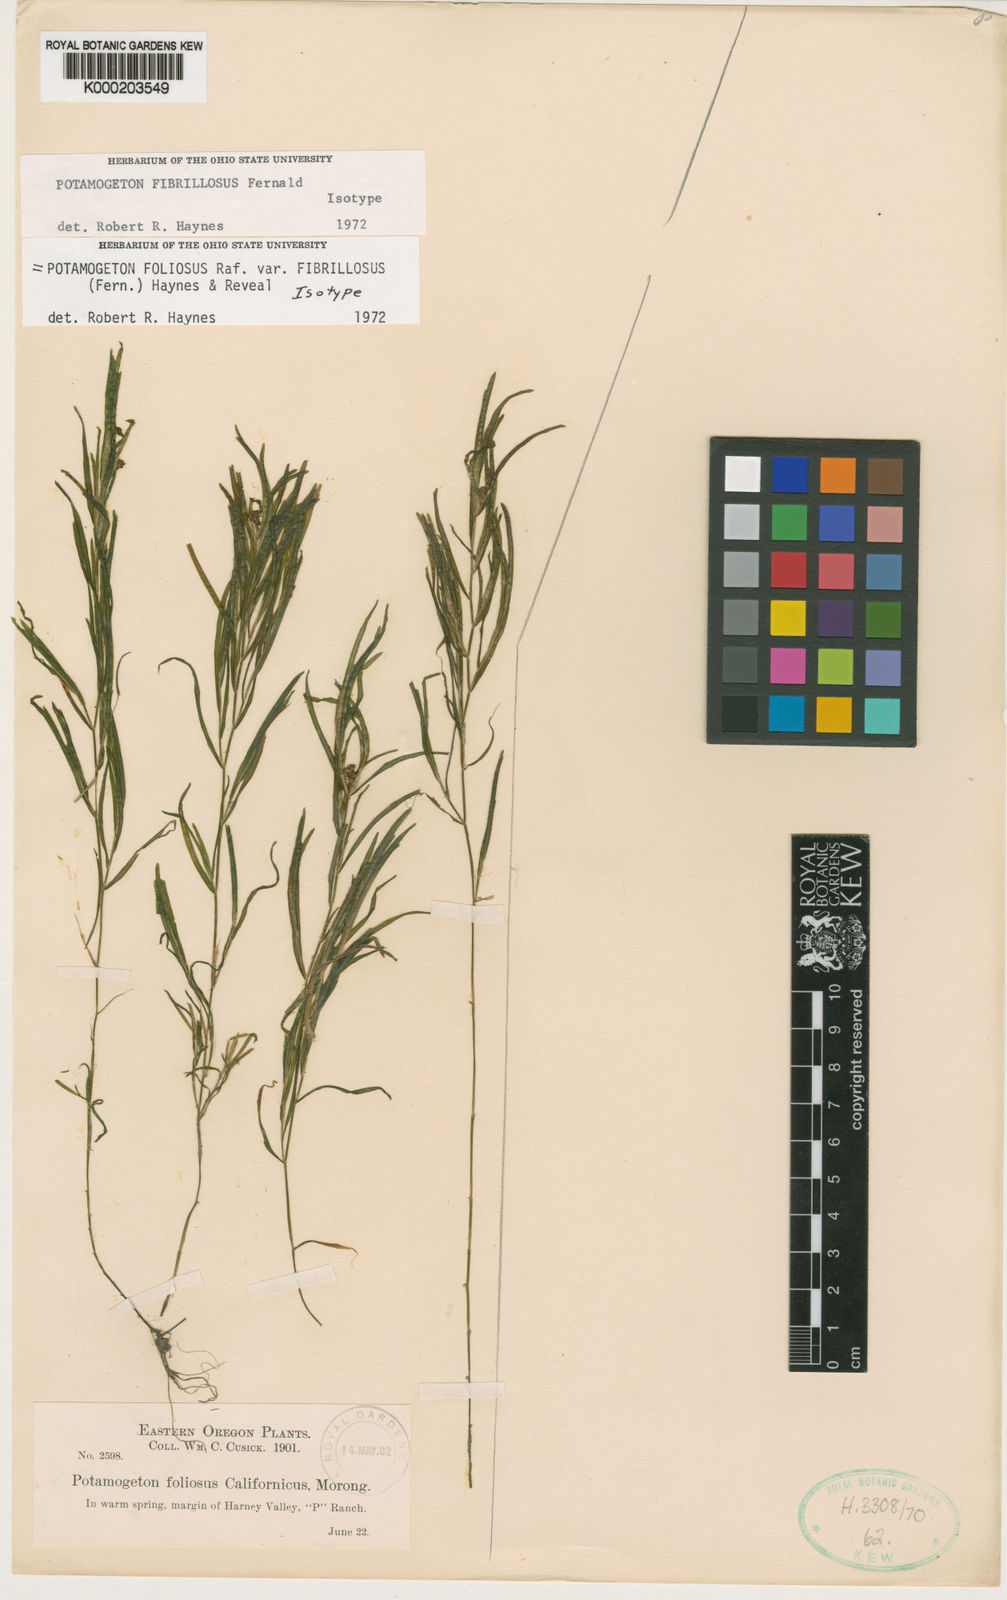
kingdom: Plantae
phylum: Tracheophyta
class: Liliopsida
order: Alismatales
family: Potamogetonaceae
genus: Potamogeton
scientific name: Potamogeton foliosus
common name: Leafy pondweed
